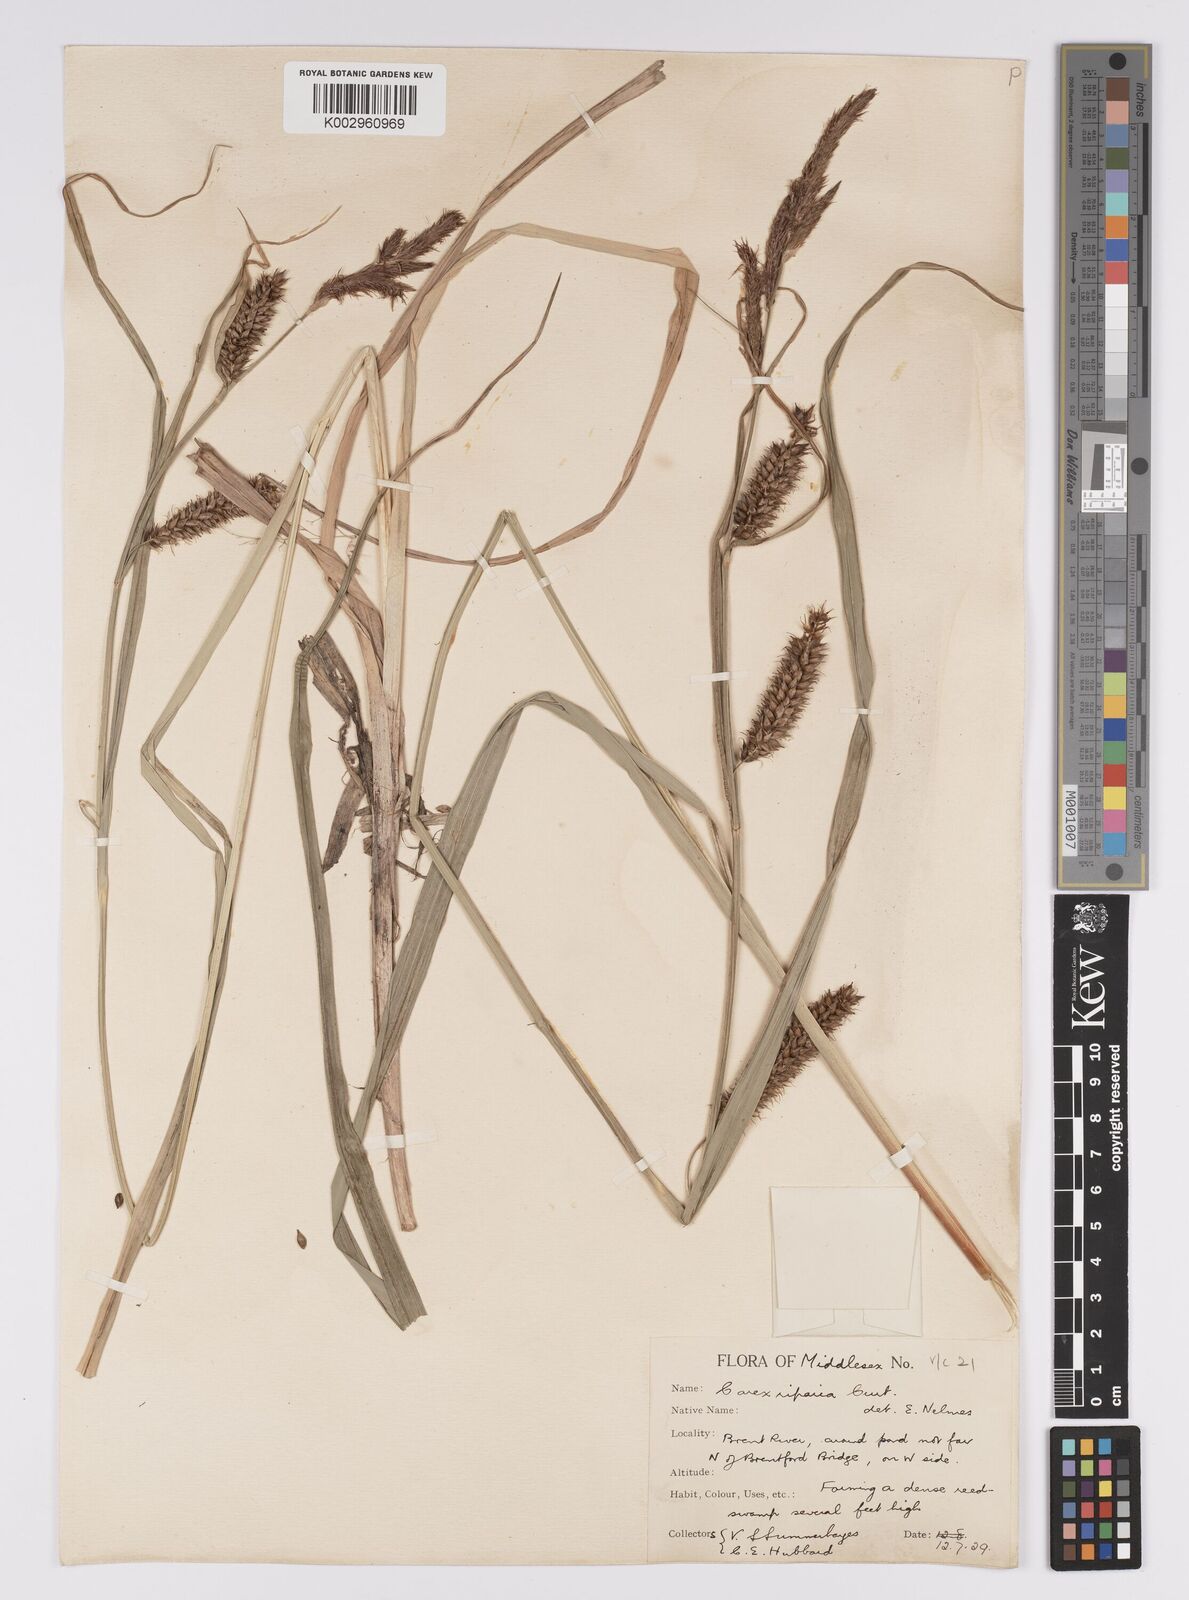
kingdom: Plantae
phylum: Tracheophyta
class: Liliopsida
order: Poales
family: Cyperaceae
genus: Carex
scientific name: Carex riparia
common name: Greater pond-sedge
